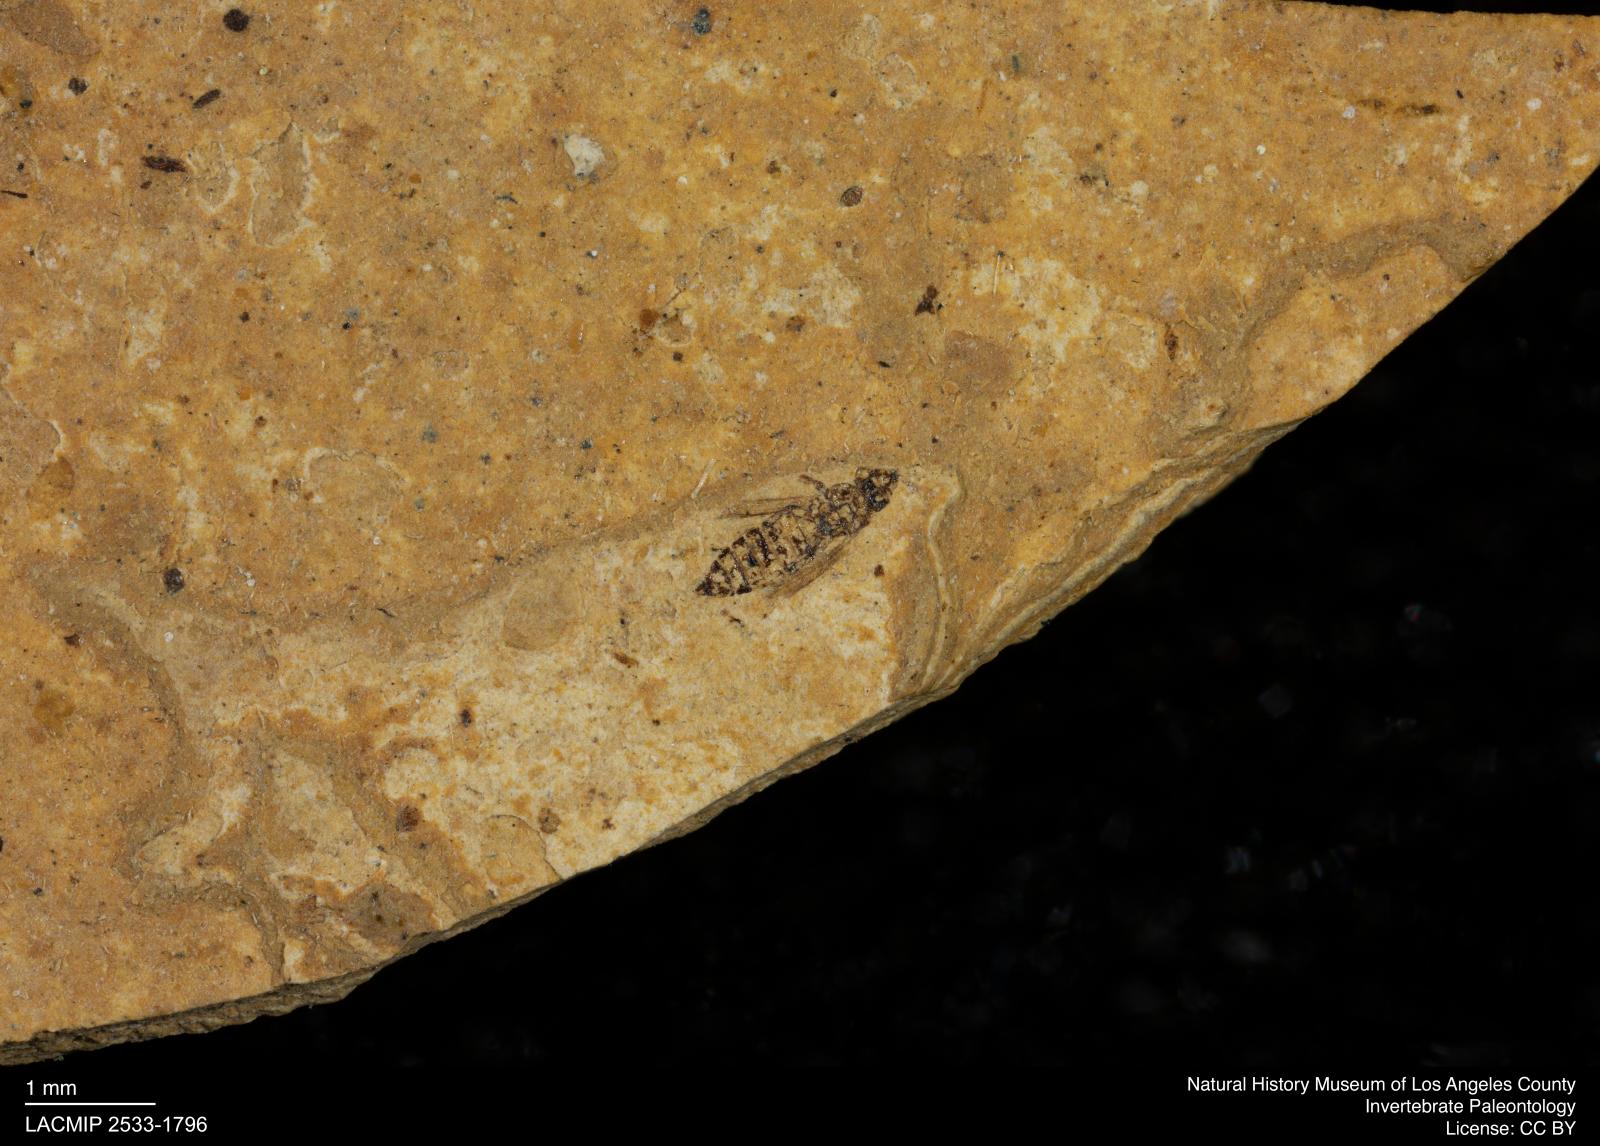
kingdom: Animalia
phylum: Arthropoda
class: Insecta
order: Thysanoptera
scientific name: Thysanoptera
